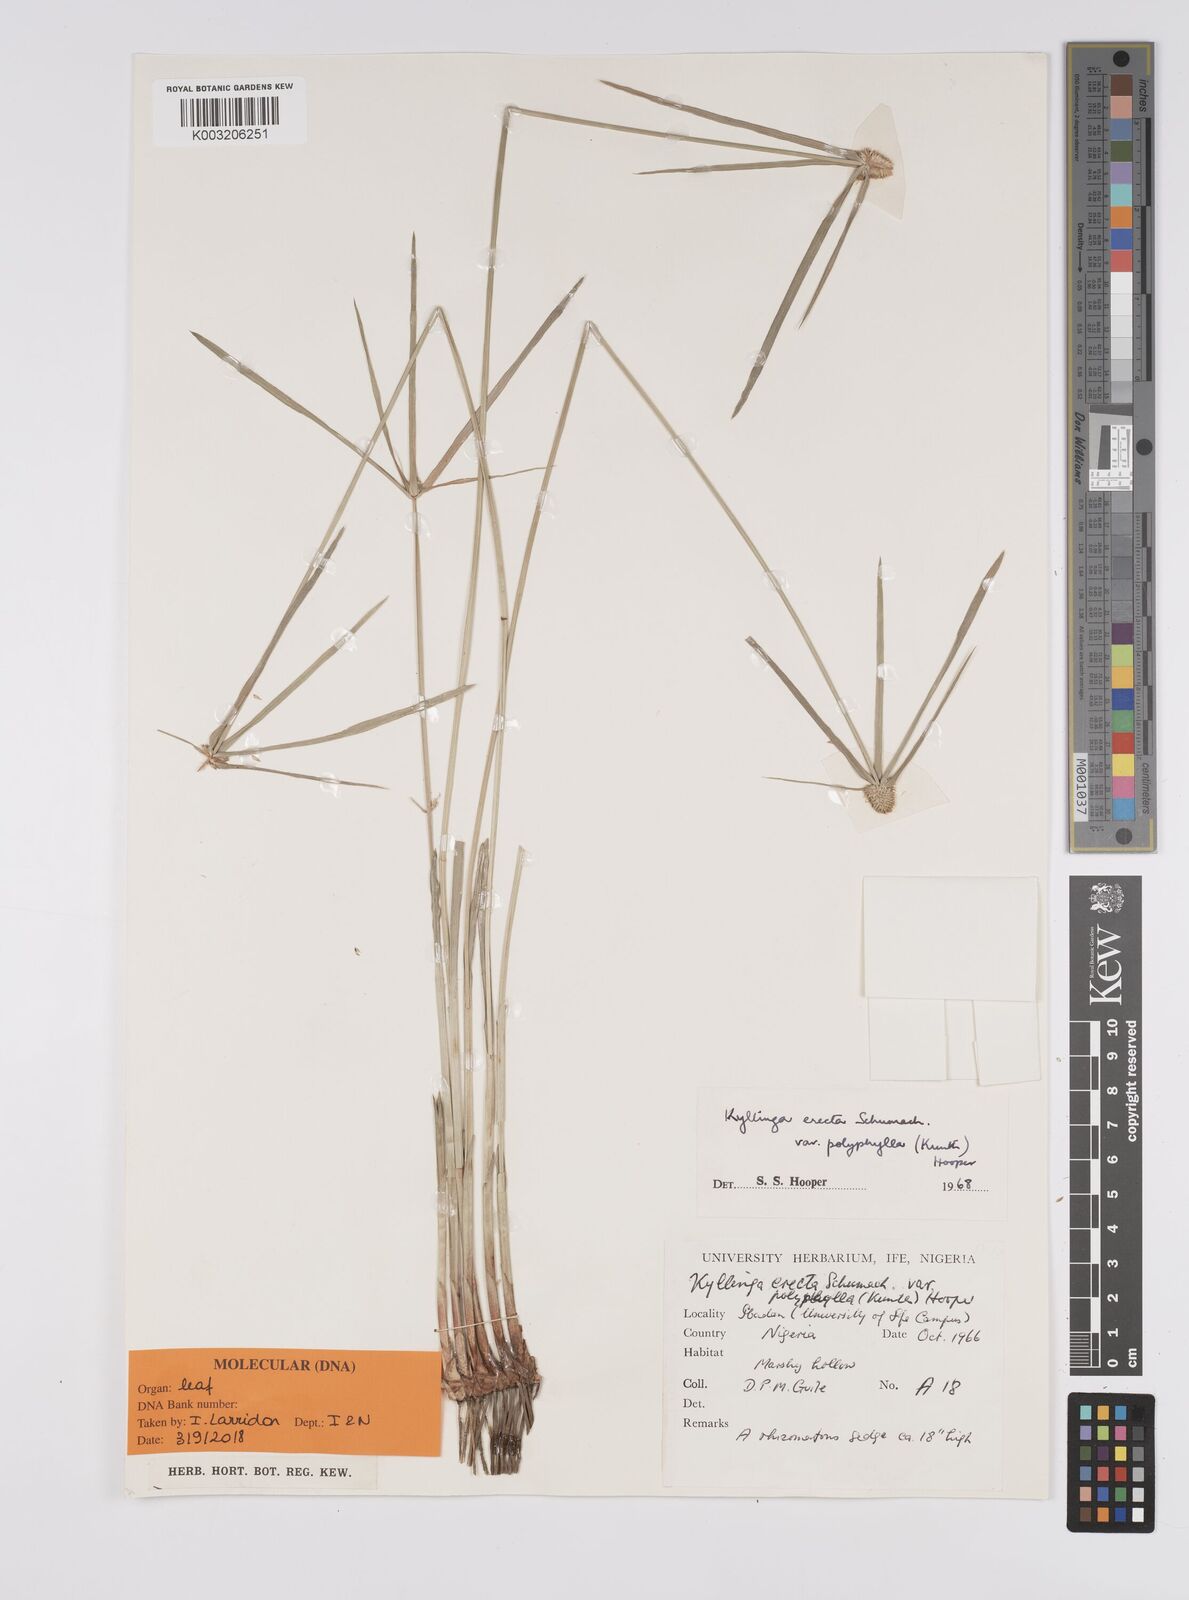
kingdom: Plantae
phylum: Tracheophyta
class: Liliopsida
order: Poales
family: Cyperaceae
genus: Cyperus
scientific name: Cyperus
